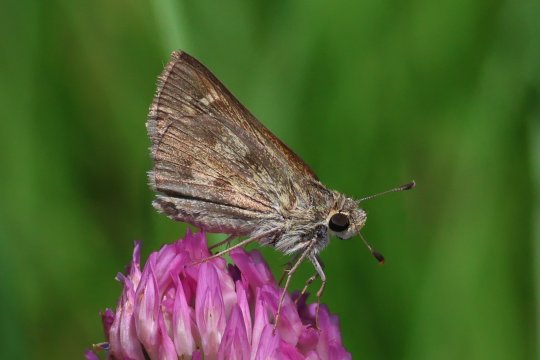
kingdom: Animalia
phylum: Arthropoda
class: Insecta
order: Lepidoptera
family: Hesperiidae
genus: Polites
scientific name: Polites vibex
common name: Whirlabout
